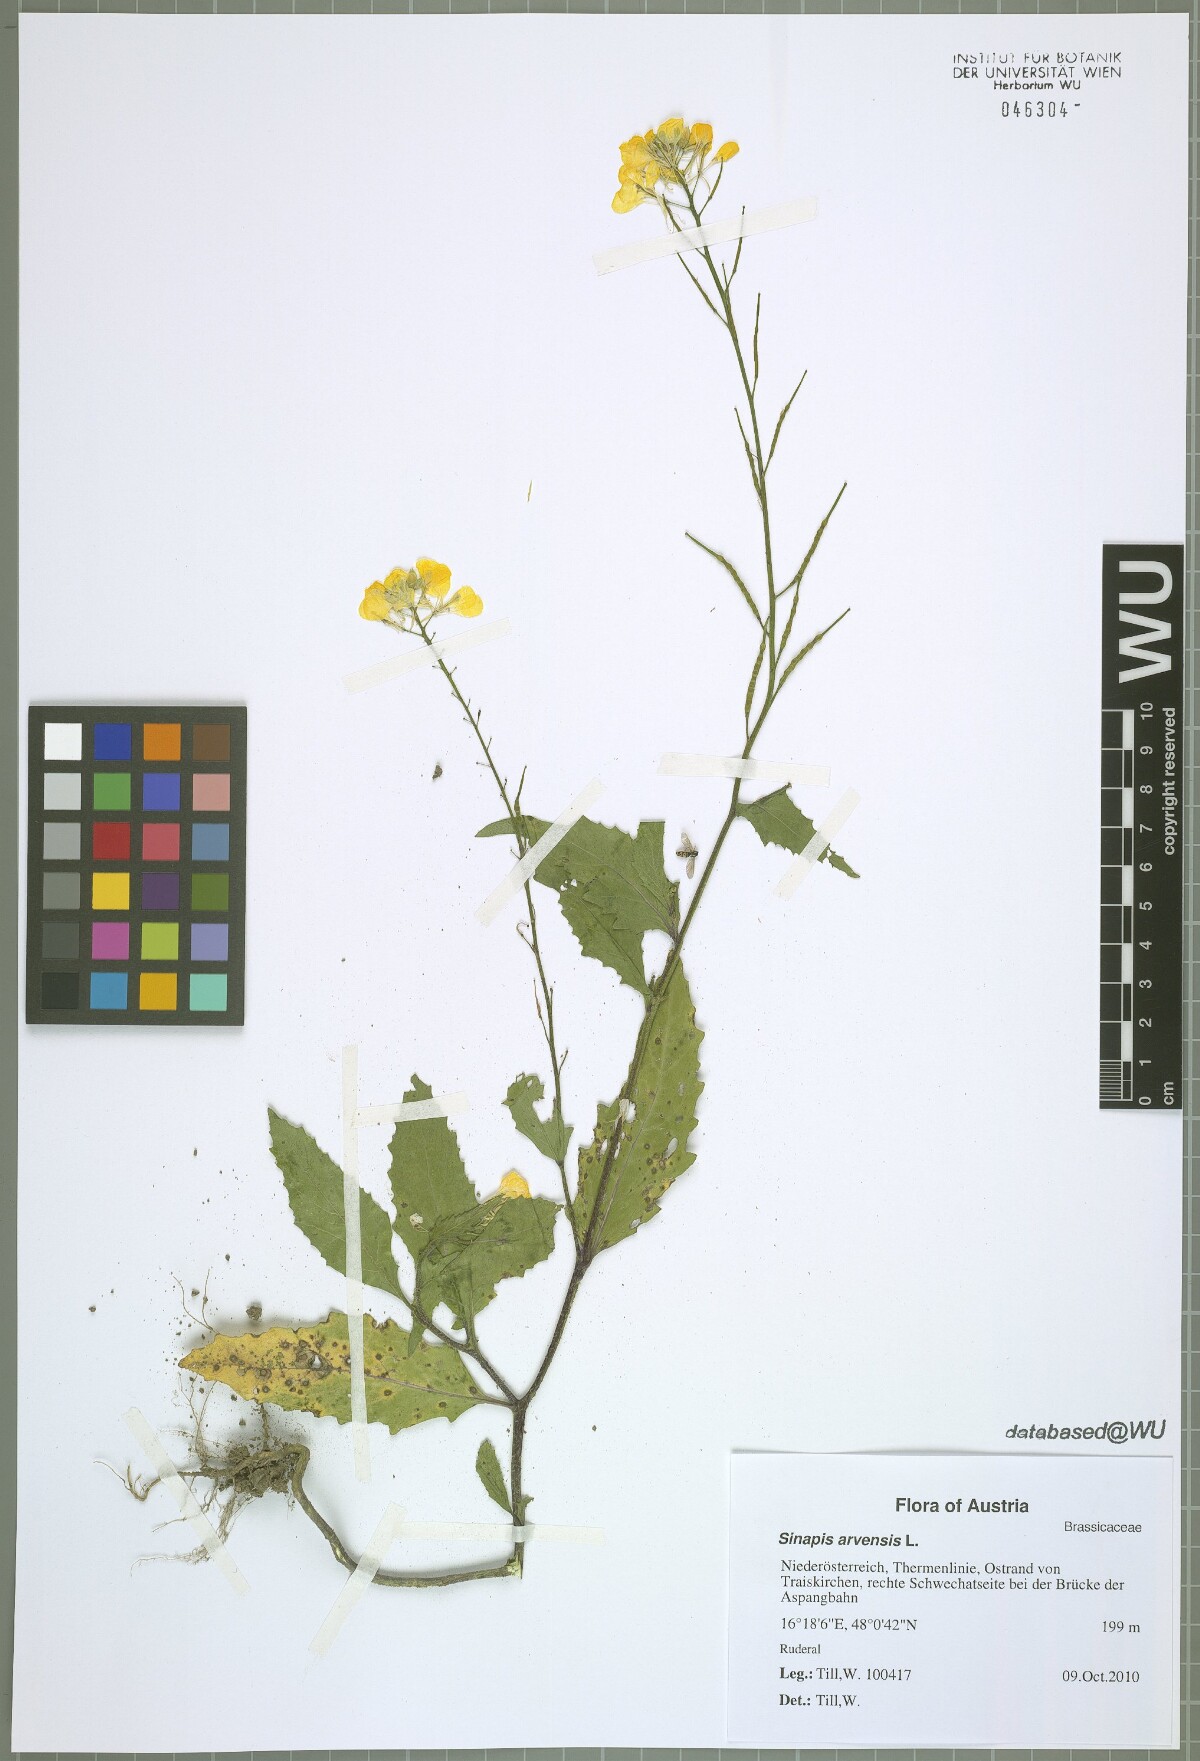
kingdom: Plantae
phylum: Tracheophyta
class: Magnoliopsida
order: Brassicales
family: Brassicaceae
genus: Sinapis
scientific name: Sinapis arvensis
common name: Charlock
